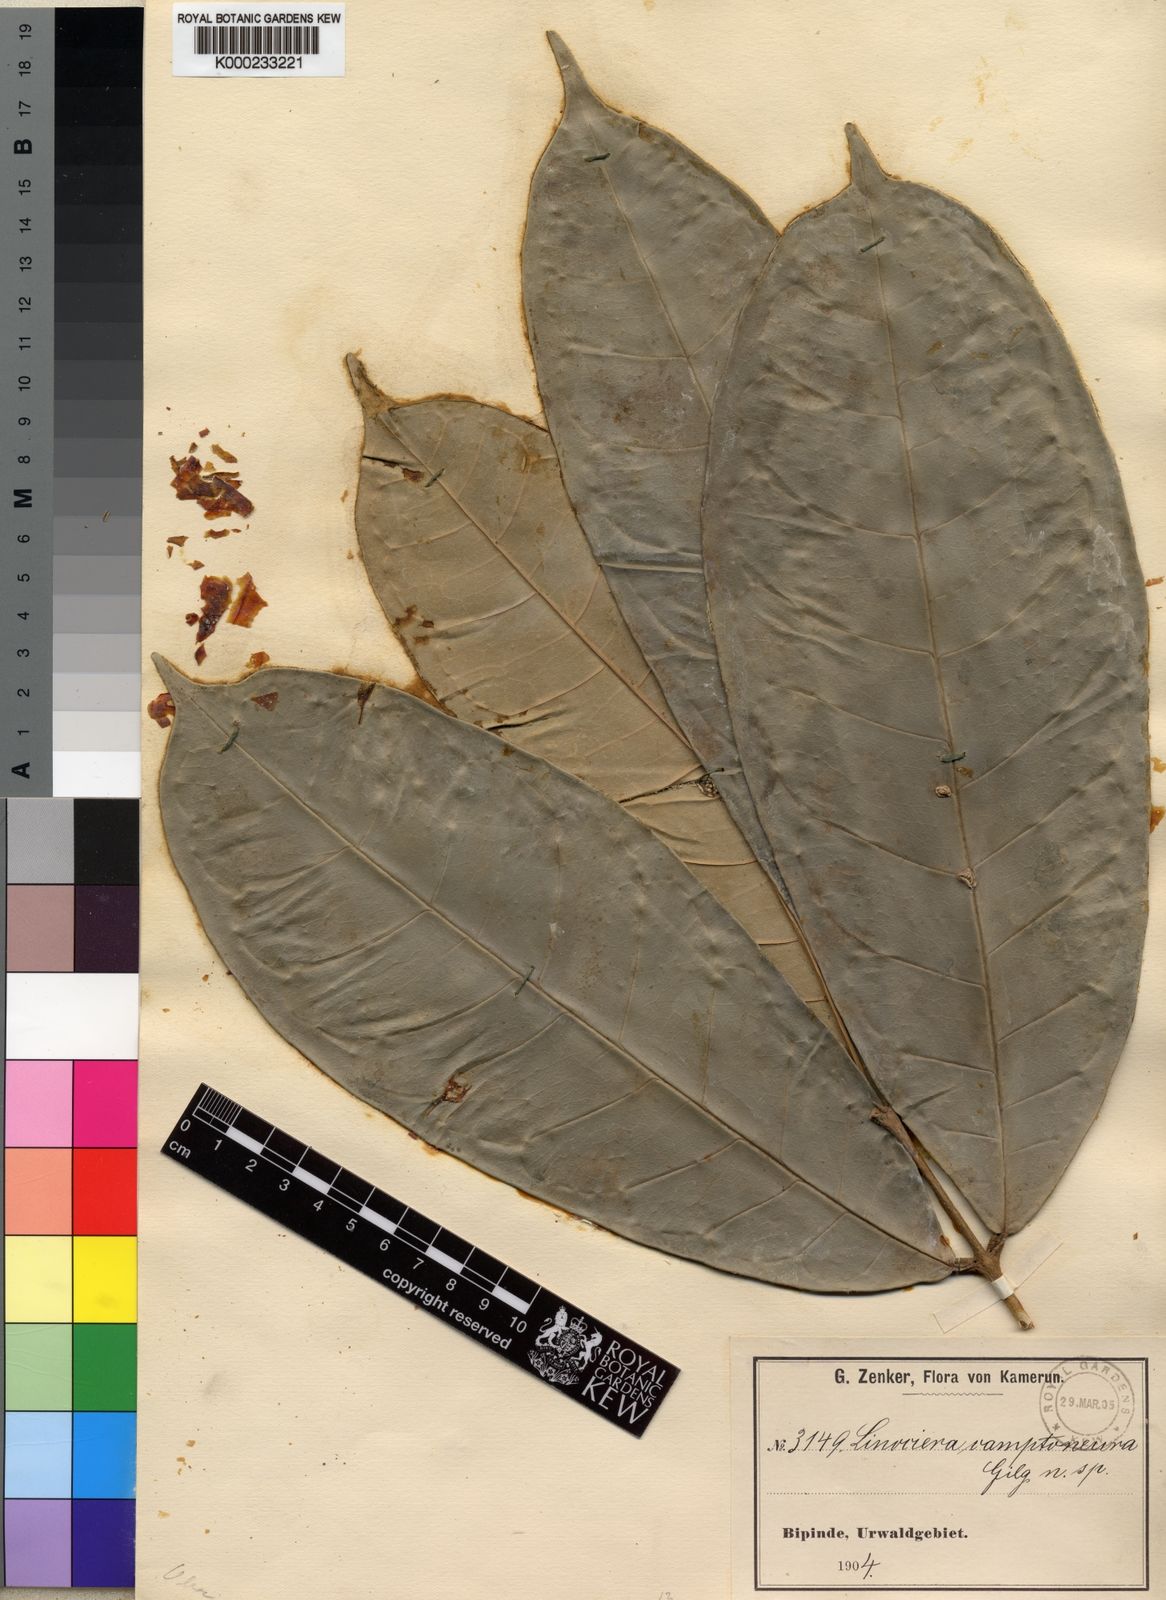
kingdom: Plantae
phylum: Tracheophyta
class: Magnoliopsida
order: Lamiales
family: Oleaceae
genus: Noronhia
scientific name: Noronhia camptoneura
